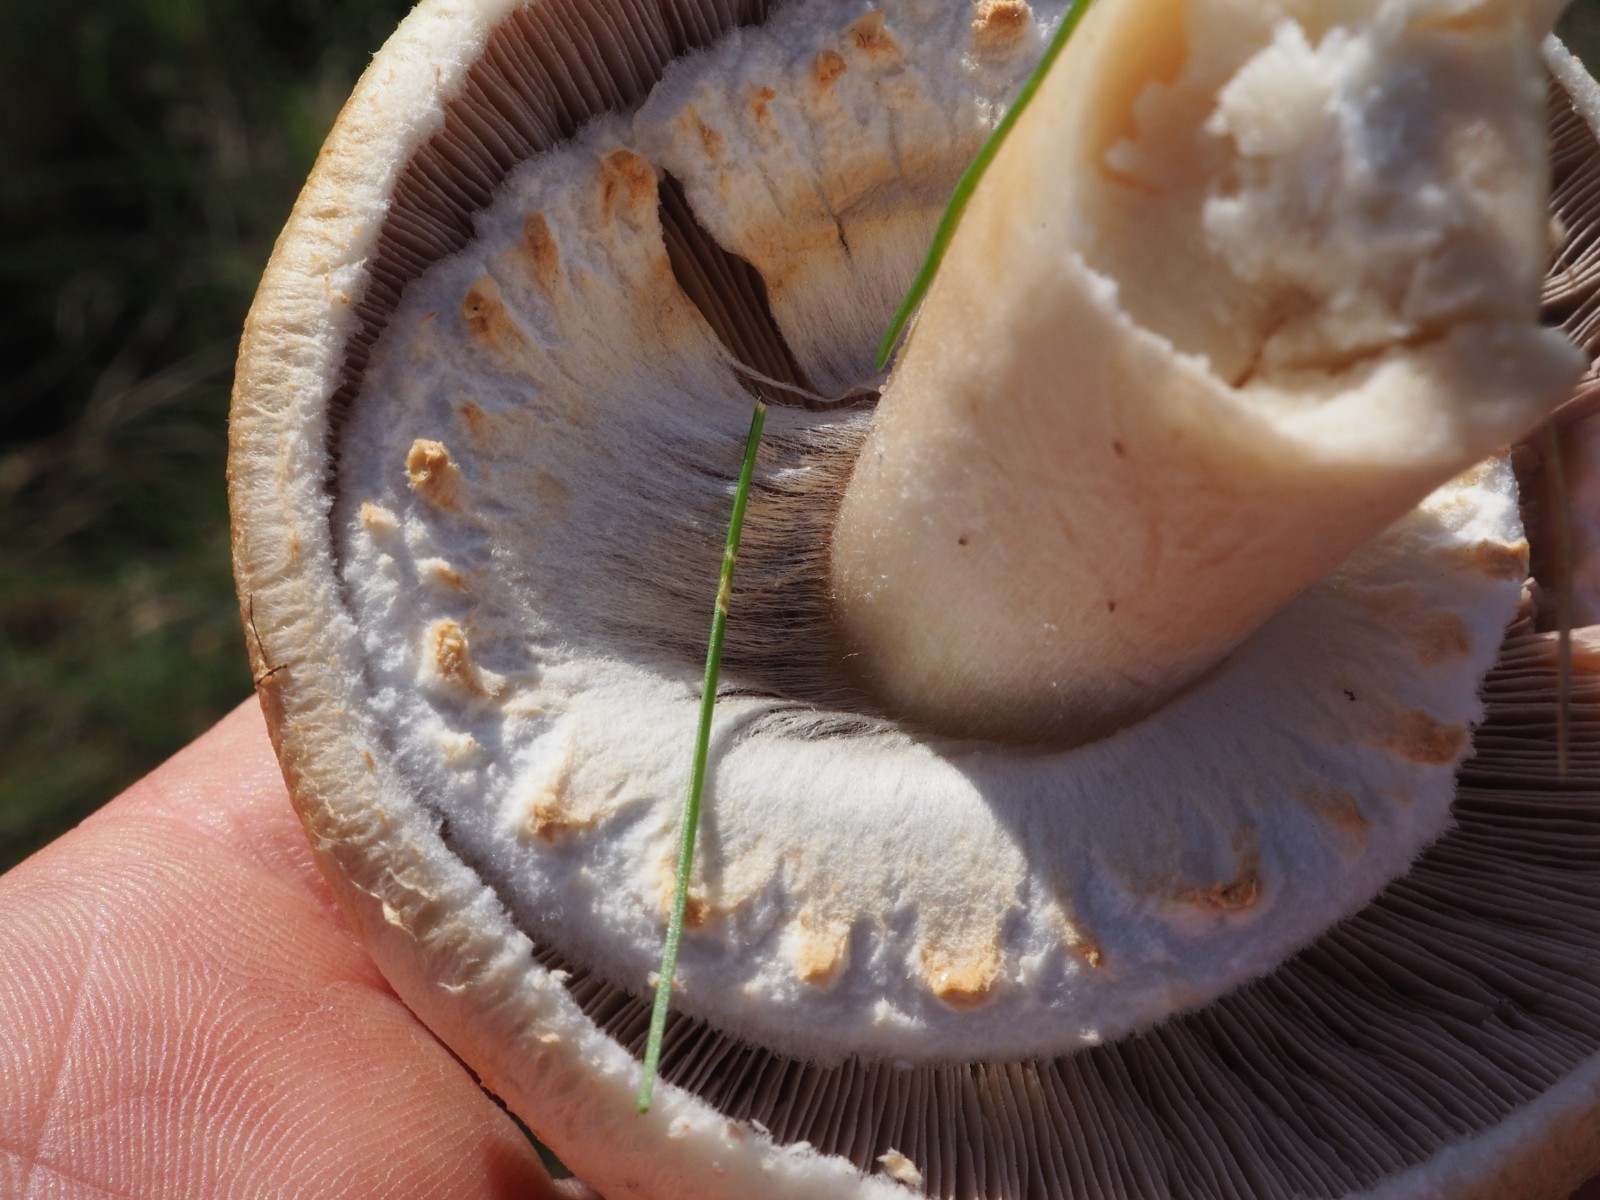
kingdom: Fungi
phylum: Basidiomycota
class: Agaricomycetes
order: Agaricales
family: Agaricaceae
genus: Agaricus
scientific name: Agaricus
